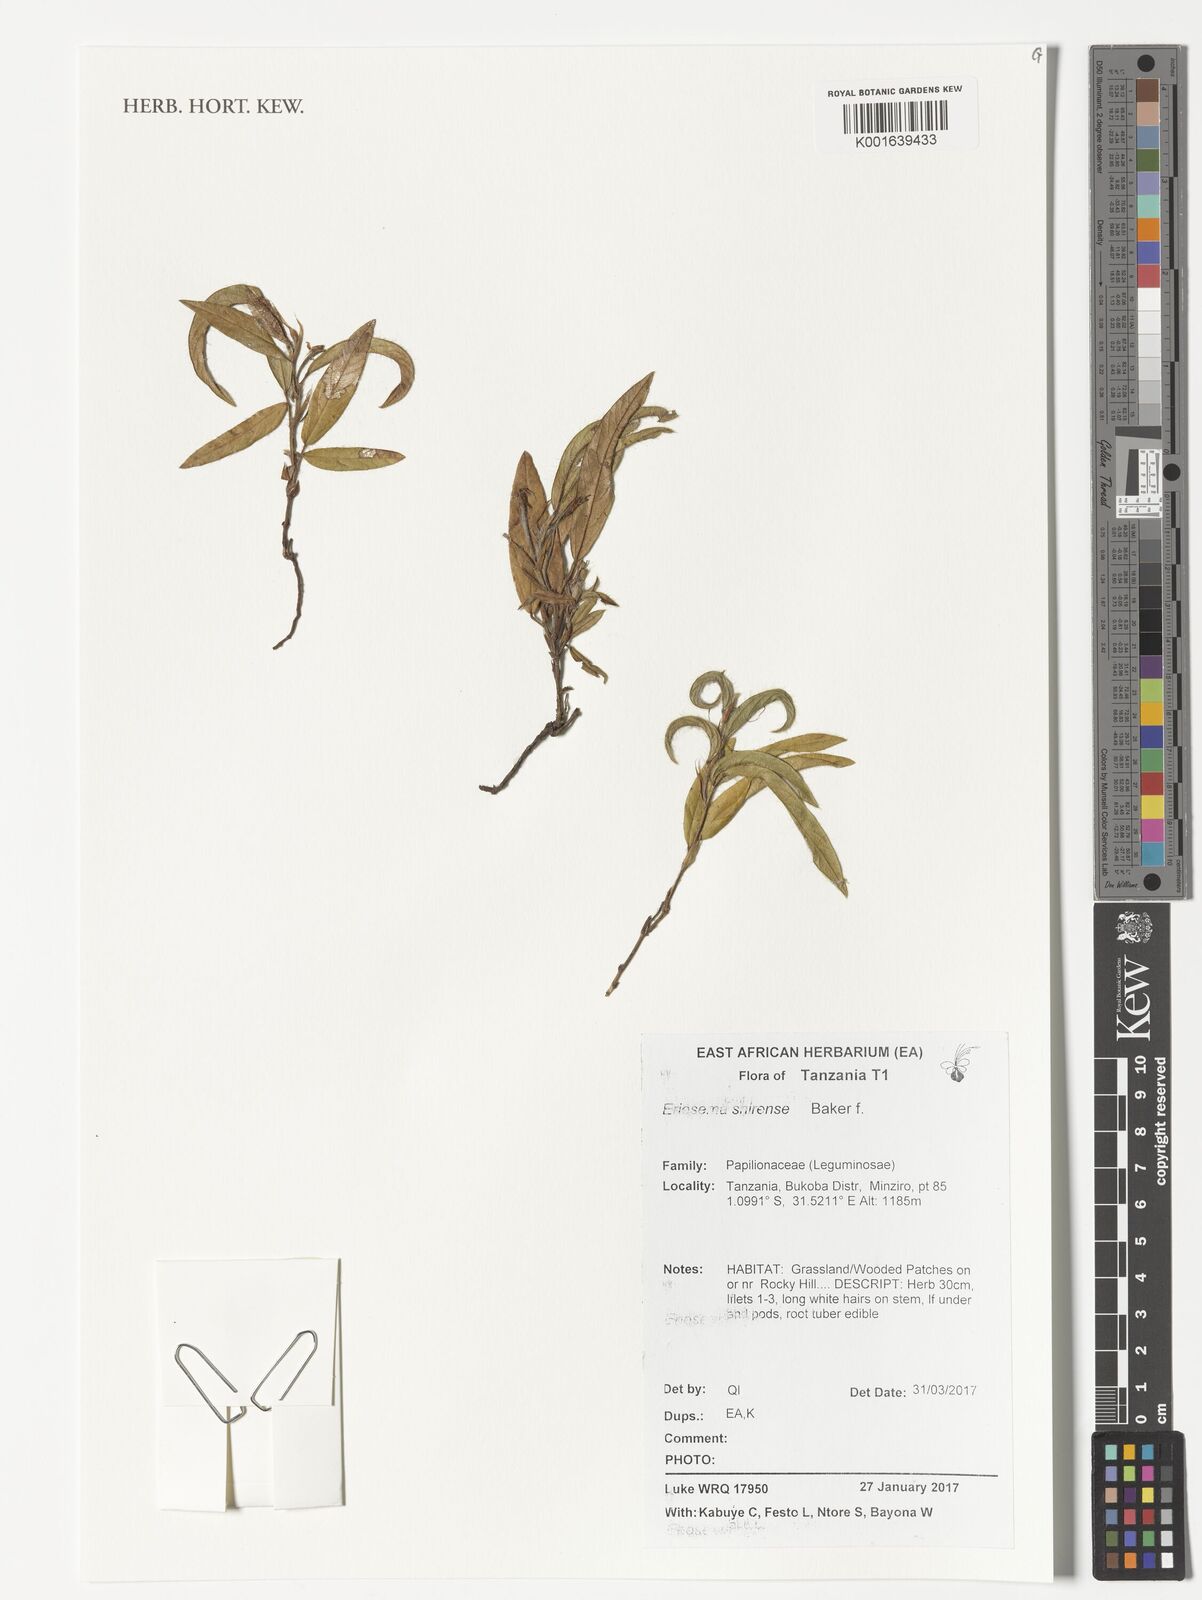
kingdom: Plantae
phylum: Tracheophyta
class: Magnoliopsida
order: Fabales
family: Fabaceae
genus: Eriosema
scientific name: Eriosema shirense
